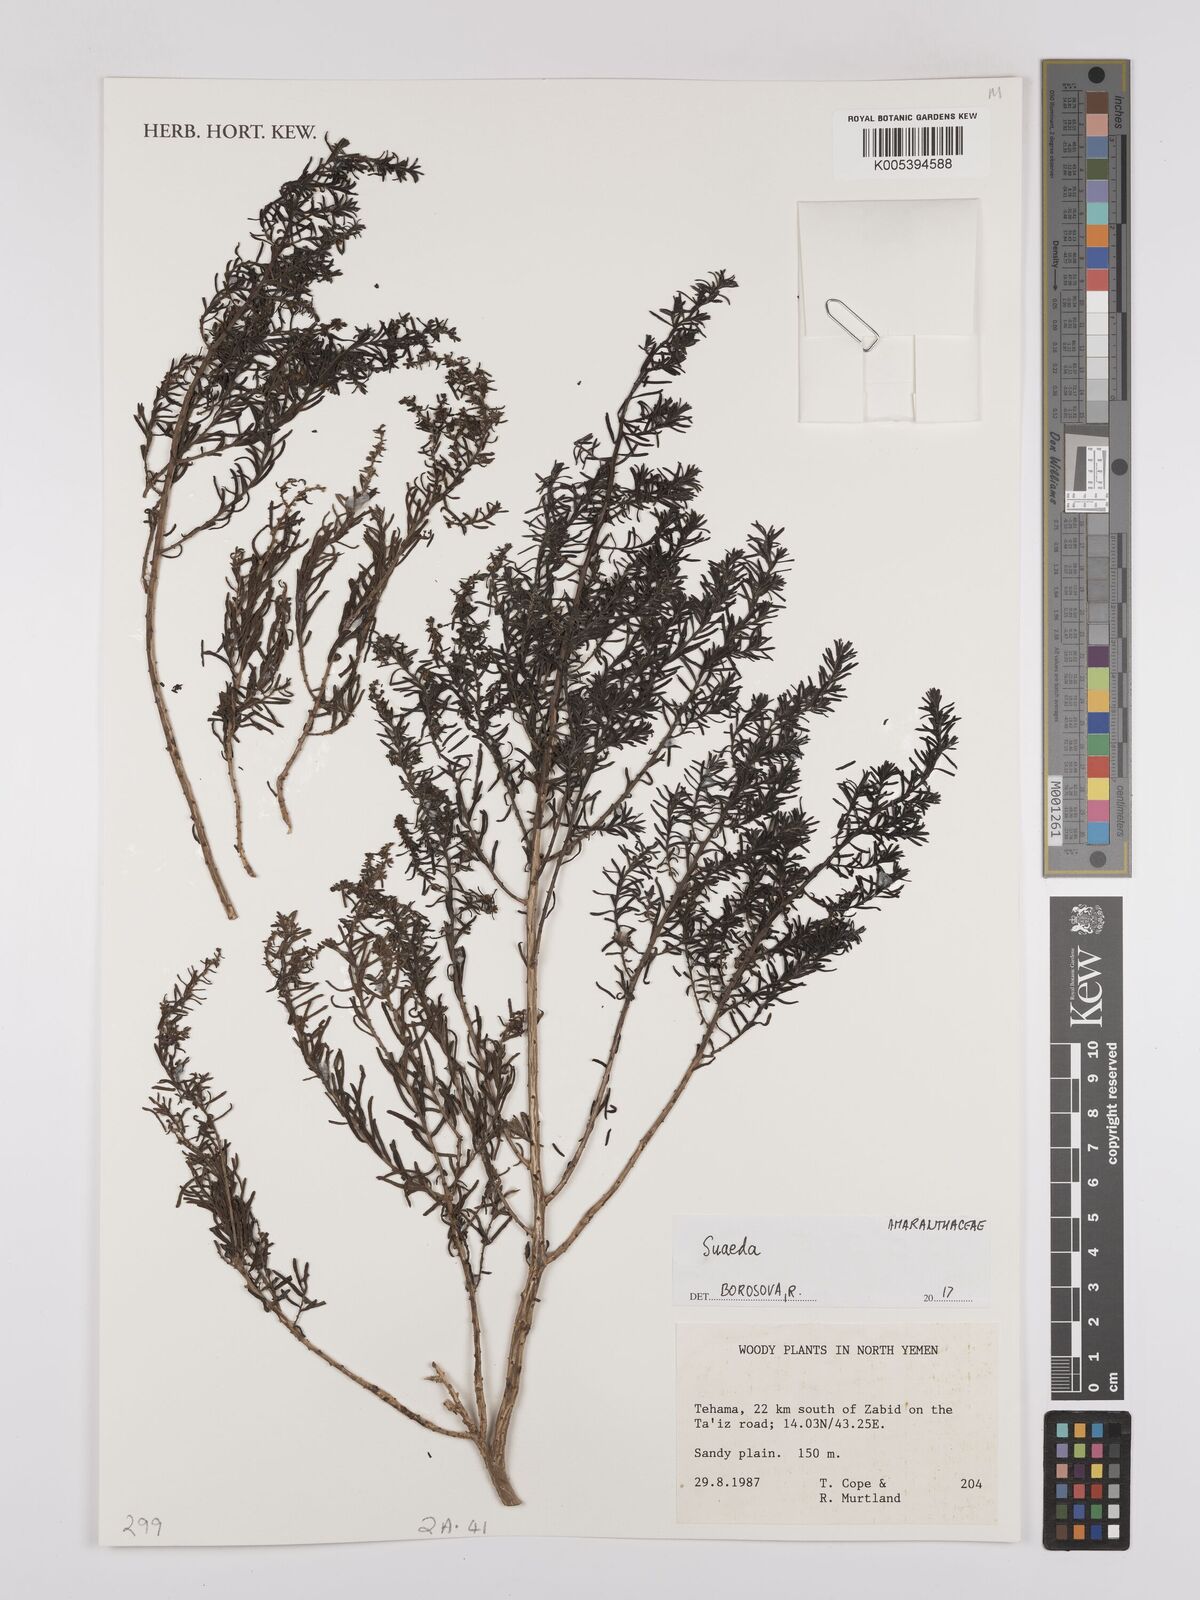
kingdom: Plantae
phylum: Tracheophyta
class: Magnoliopsida
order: Caryophyllales
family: Amaranthaceae
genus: Suaeda
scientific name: Suaeda
